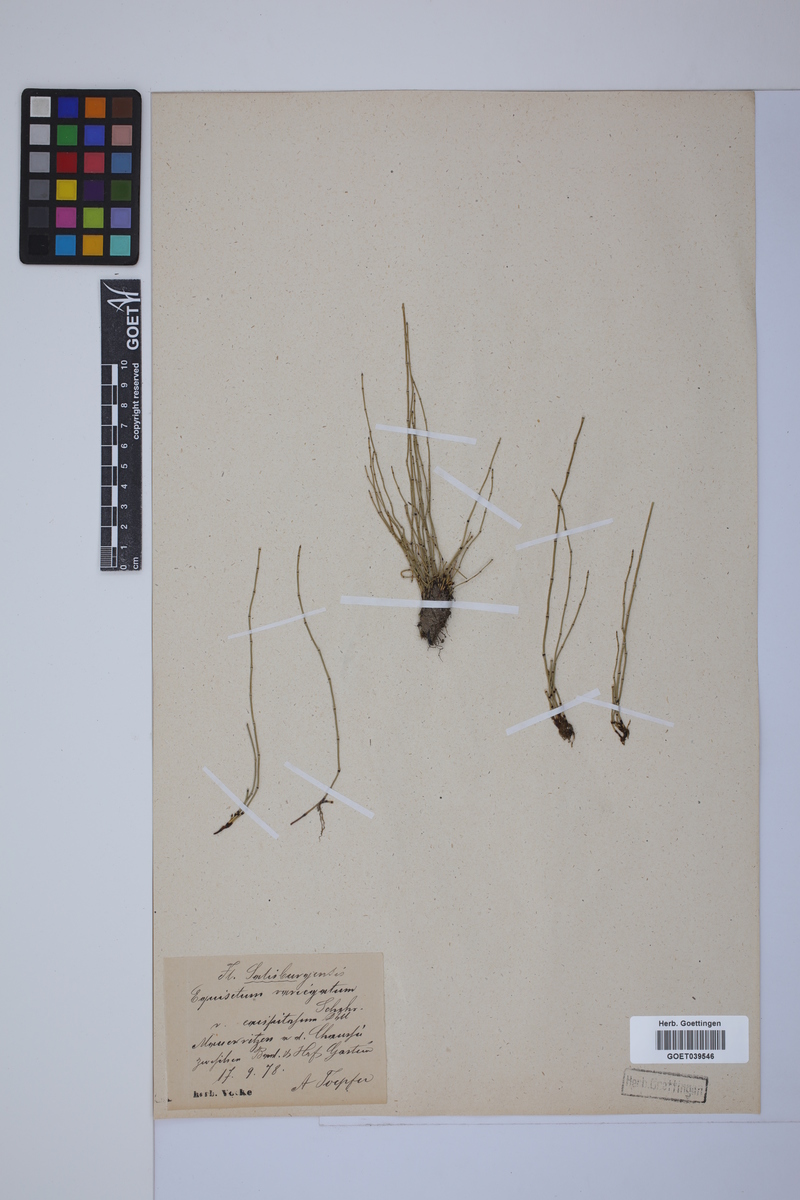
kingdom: Plantae
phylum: Tracheophyta
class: Polypodiopsida
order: Equisetales
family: Equisetaceae
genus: Equisetum
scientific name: Equisetum variegatum
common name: Variegated horsetail
